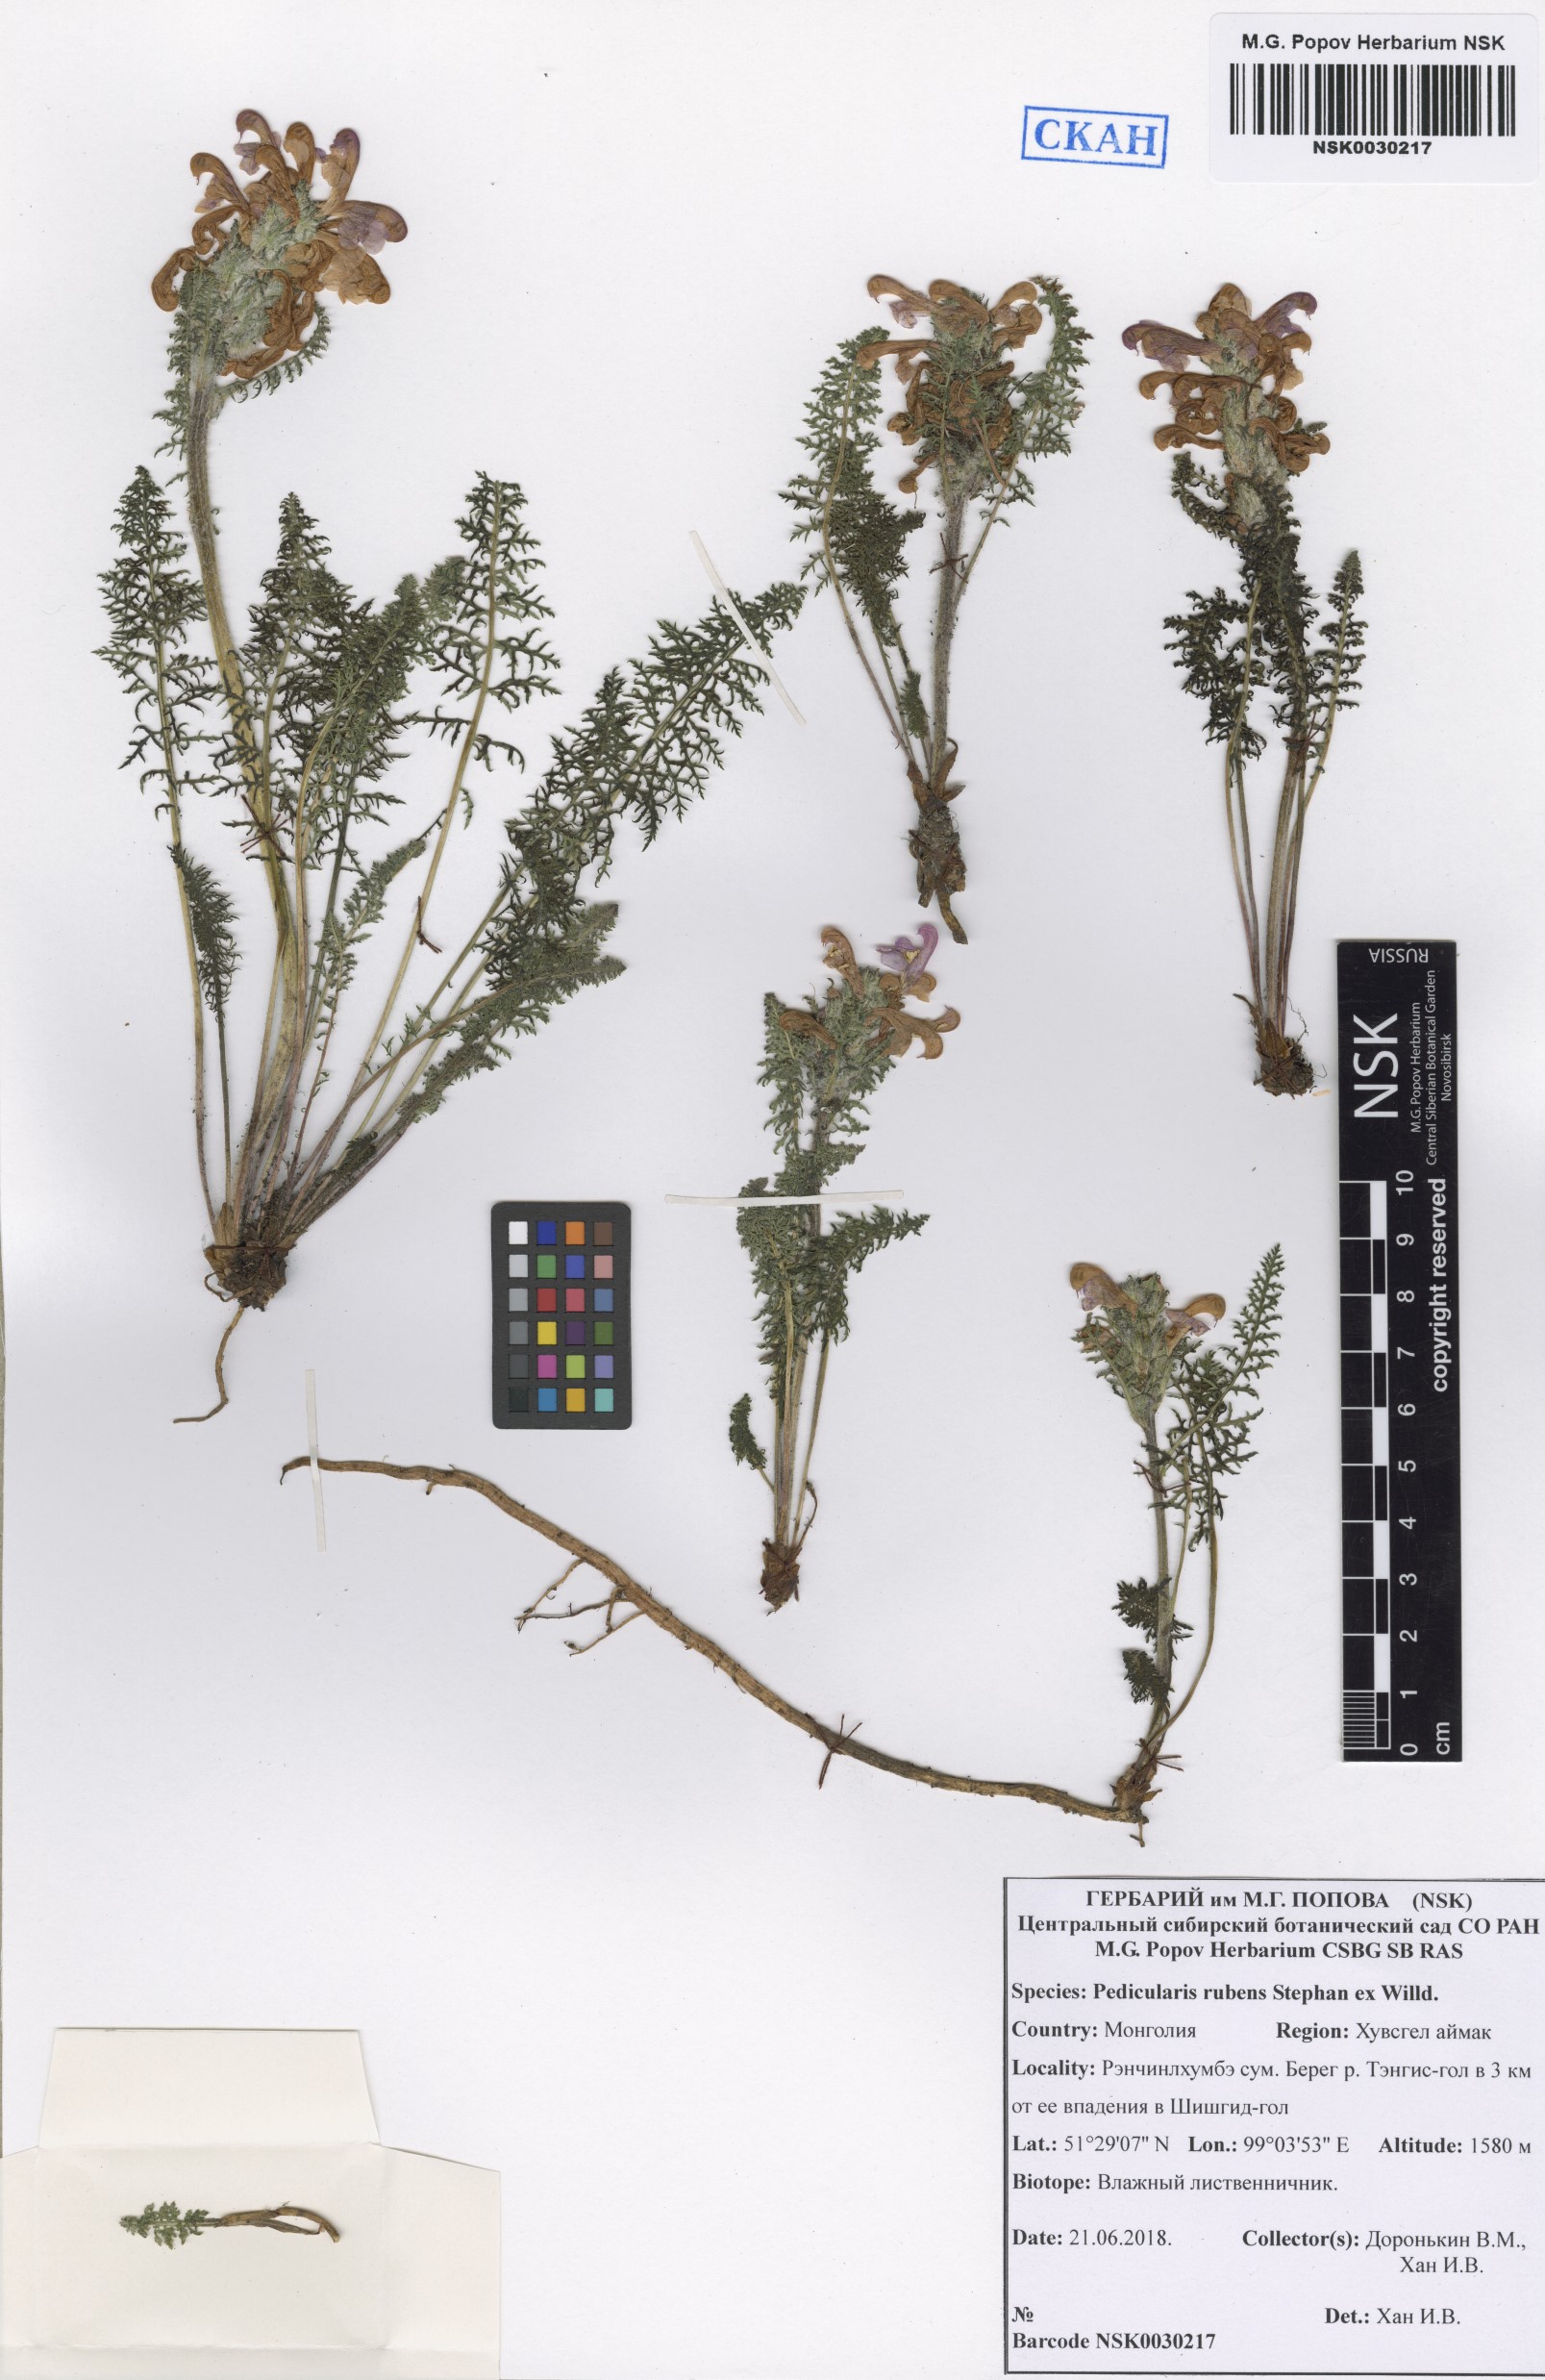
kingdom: Plantae
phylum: Tracheophyta
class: Magnoliopsida
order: Lamiales
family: Orobanchaceae
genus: Pedicularis
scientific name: Pedicularis rubens
